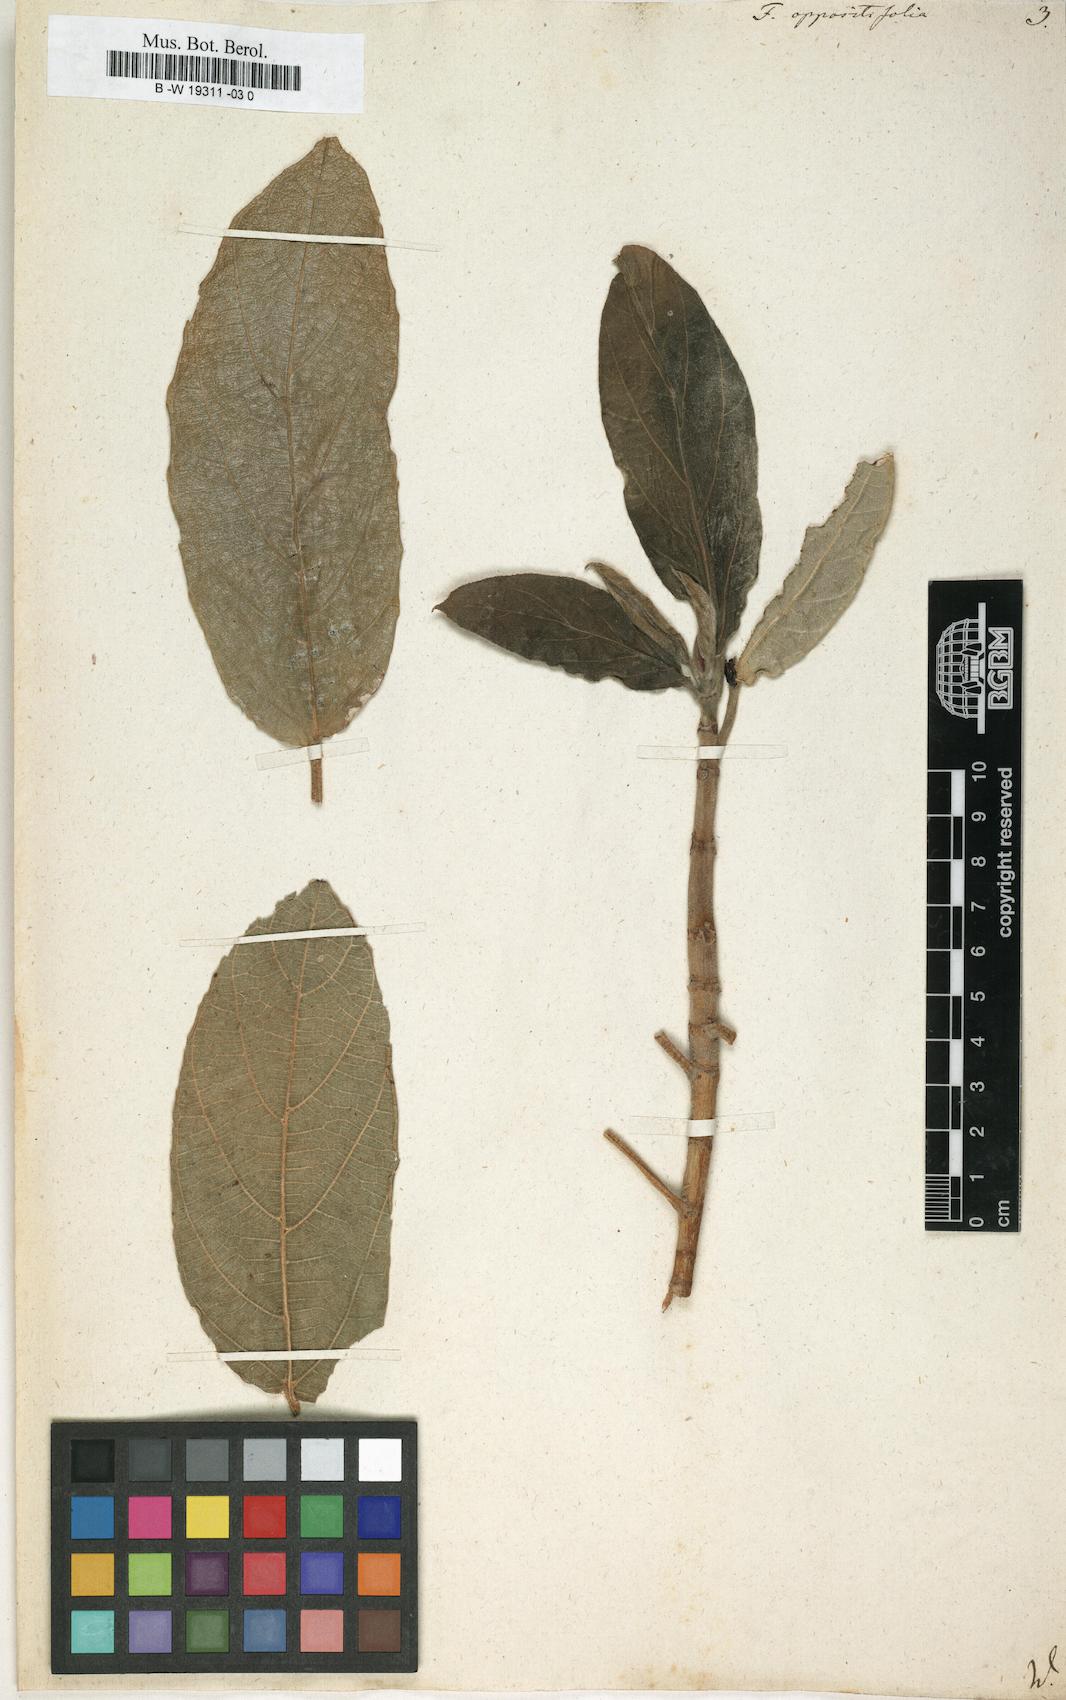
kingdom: Plantae
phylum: Tracheophyta
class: Magnoliopsida
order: Rosales
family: Moraceae
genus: Ficus
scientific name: Ficus hispida
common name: Hairy fig
